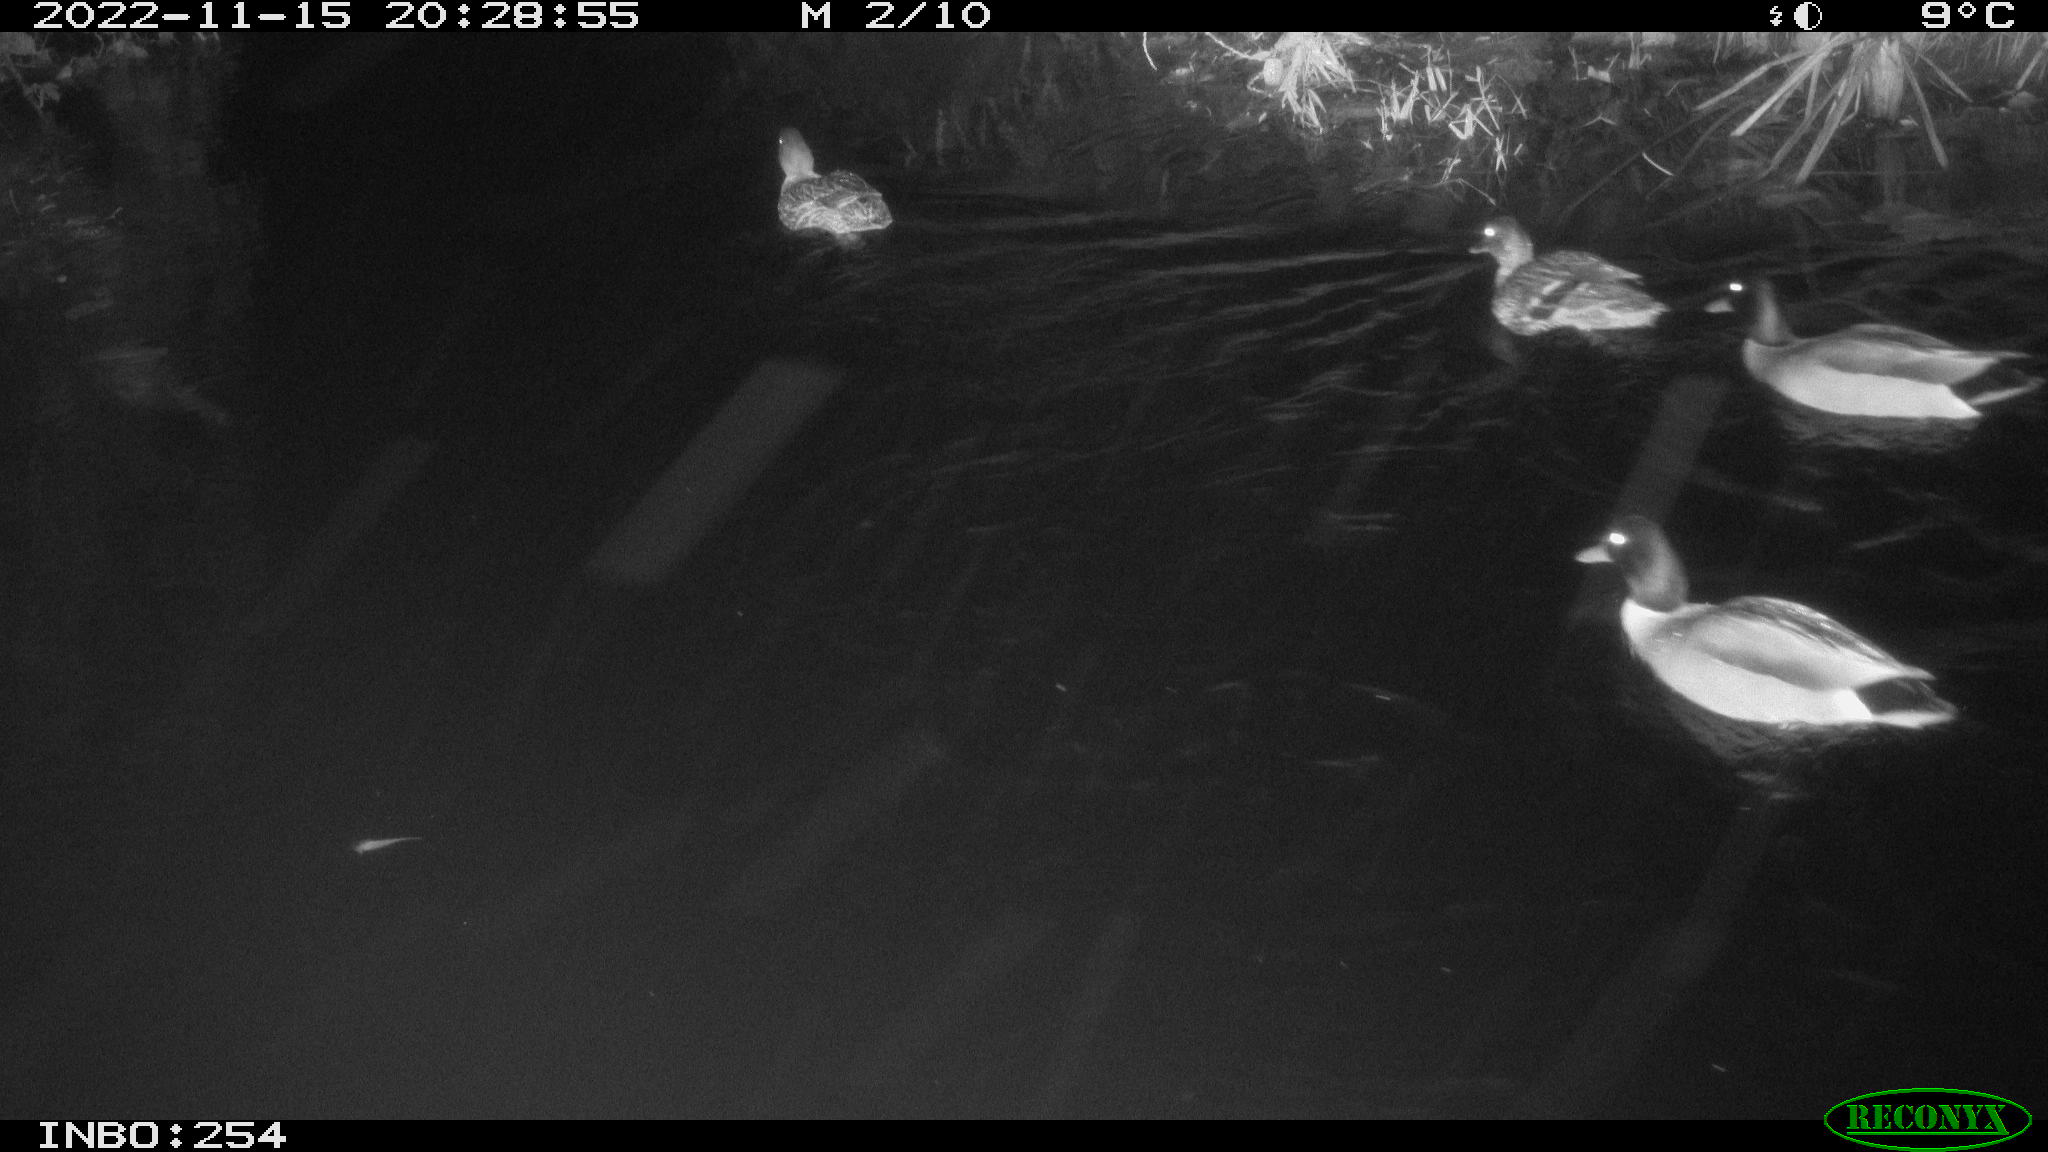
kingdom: Animalia
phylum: Chordata
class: Aves
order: Anseriformes
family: Anatidae
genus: Anas
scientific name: Anas
